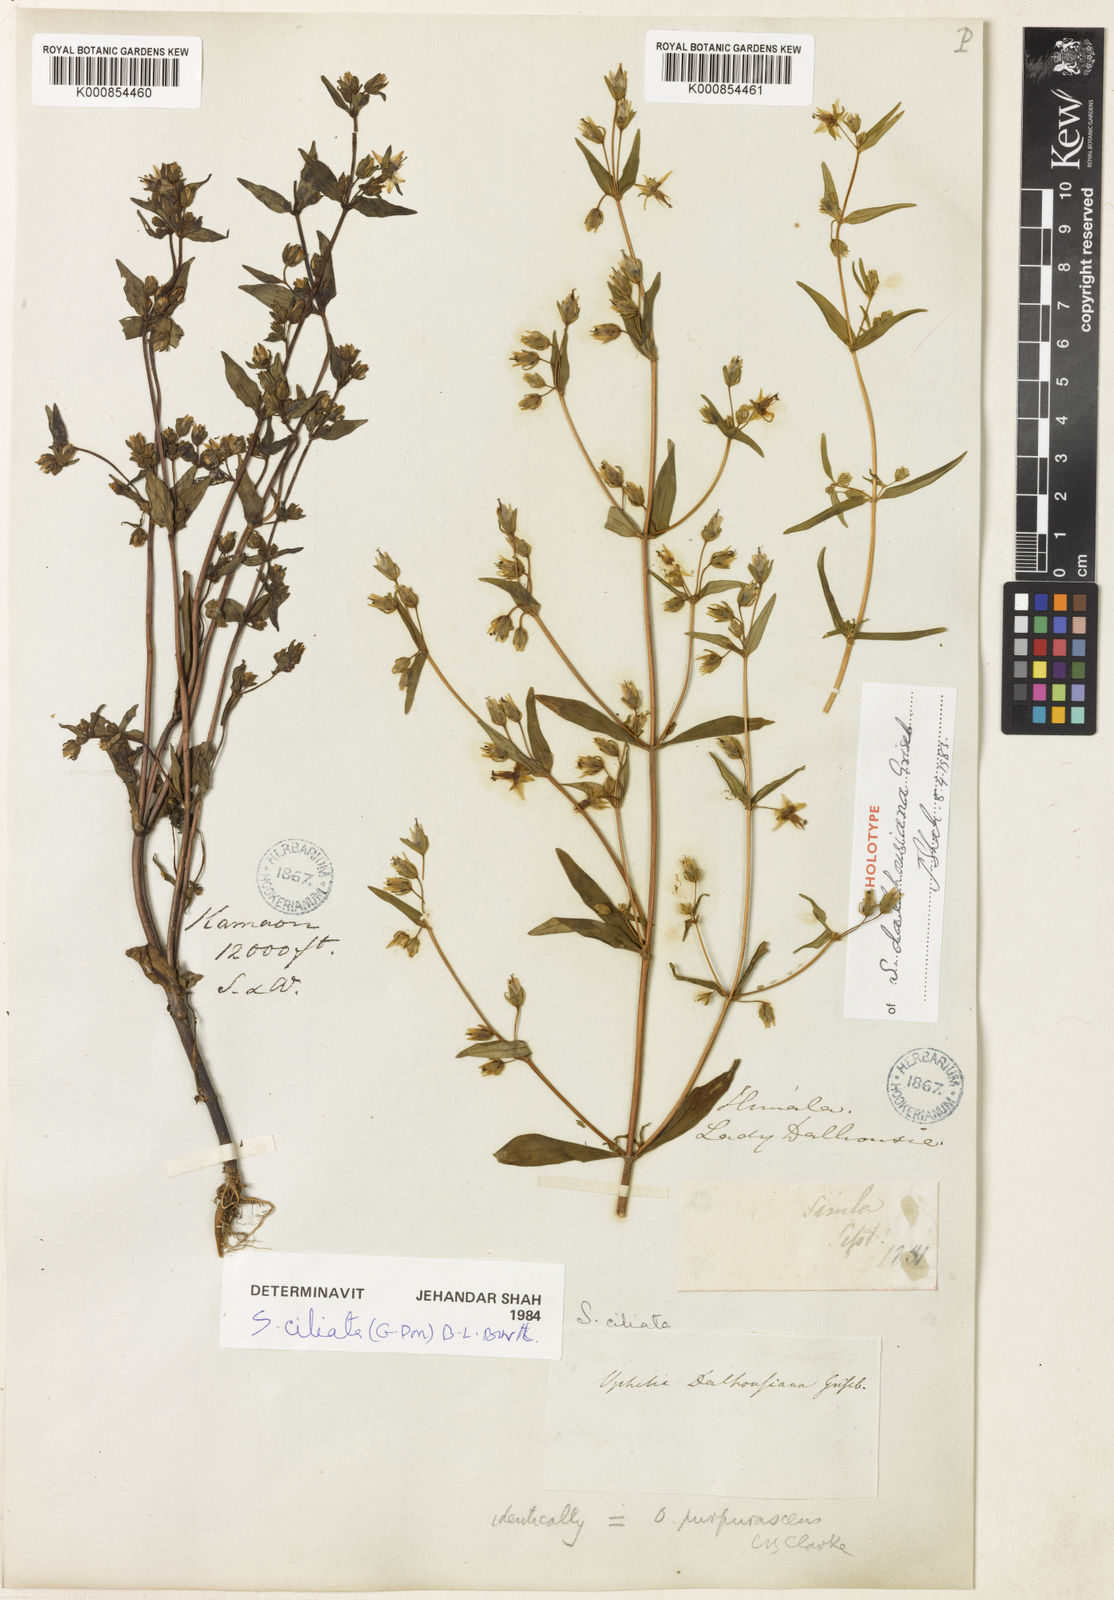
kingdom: Plantae
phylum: Tracheophyta
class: Magnoliopsida
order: Gentianales
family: Gentianaceae
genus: Swertia
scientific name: Swertia
